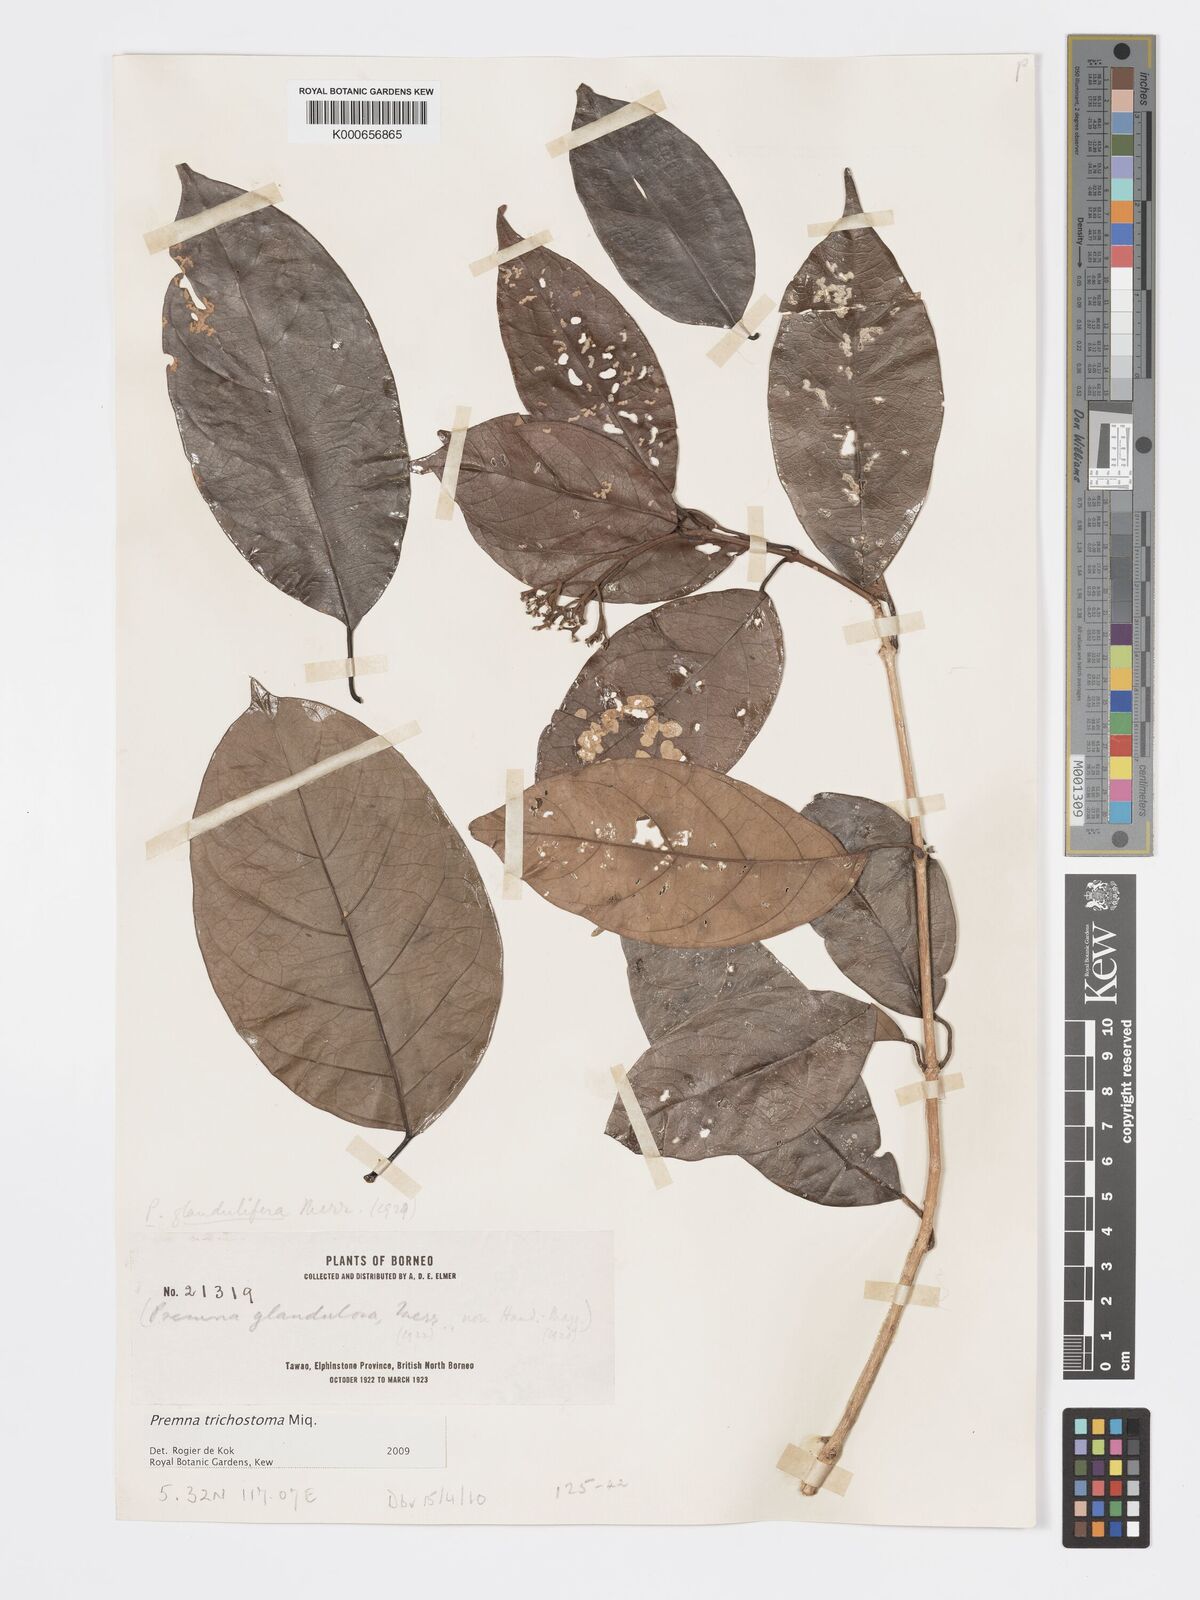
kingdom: Plantae
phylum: Tracheophyta
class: Magnoliopsida
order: Lamiales
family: Lamiaceae
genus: Premna
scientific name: Premna trichostoma
